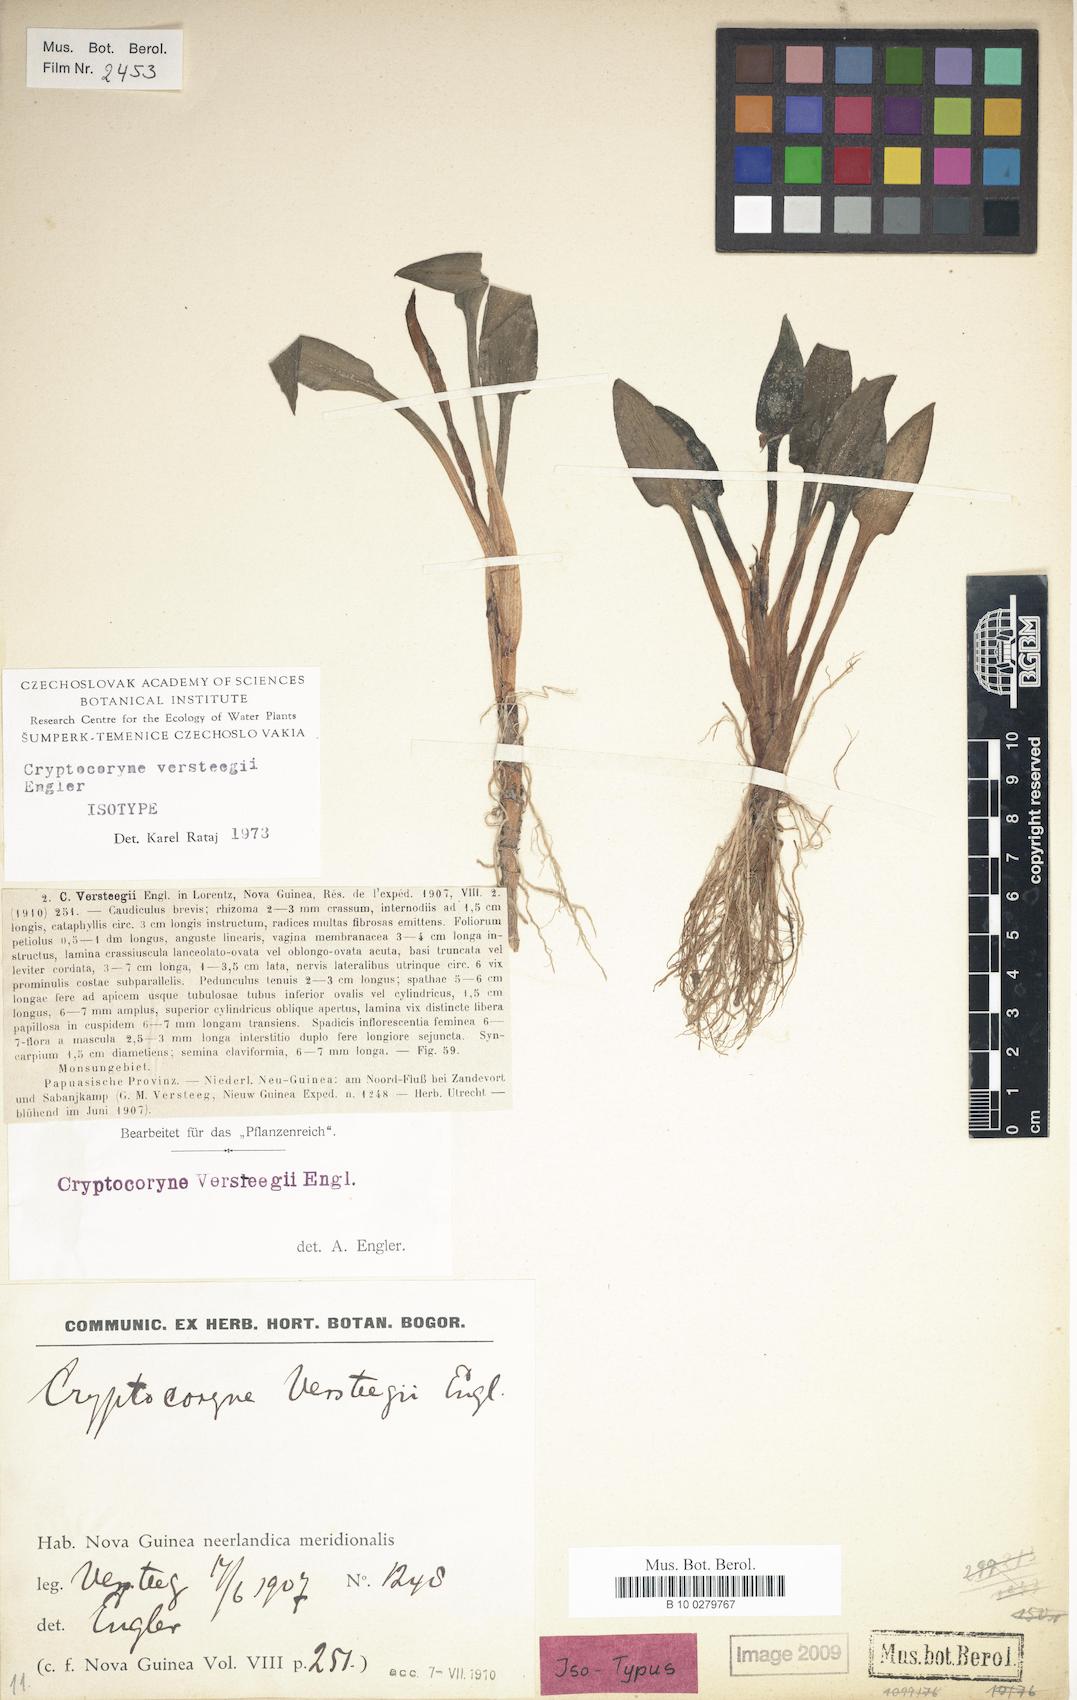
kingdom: Plantae
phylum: Tracheophyta
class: Liliopsida
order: Alismatales
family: Araceae
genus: Cryptocoryne
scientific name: Cryptocoryne versteegii
